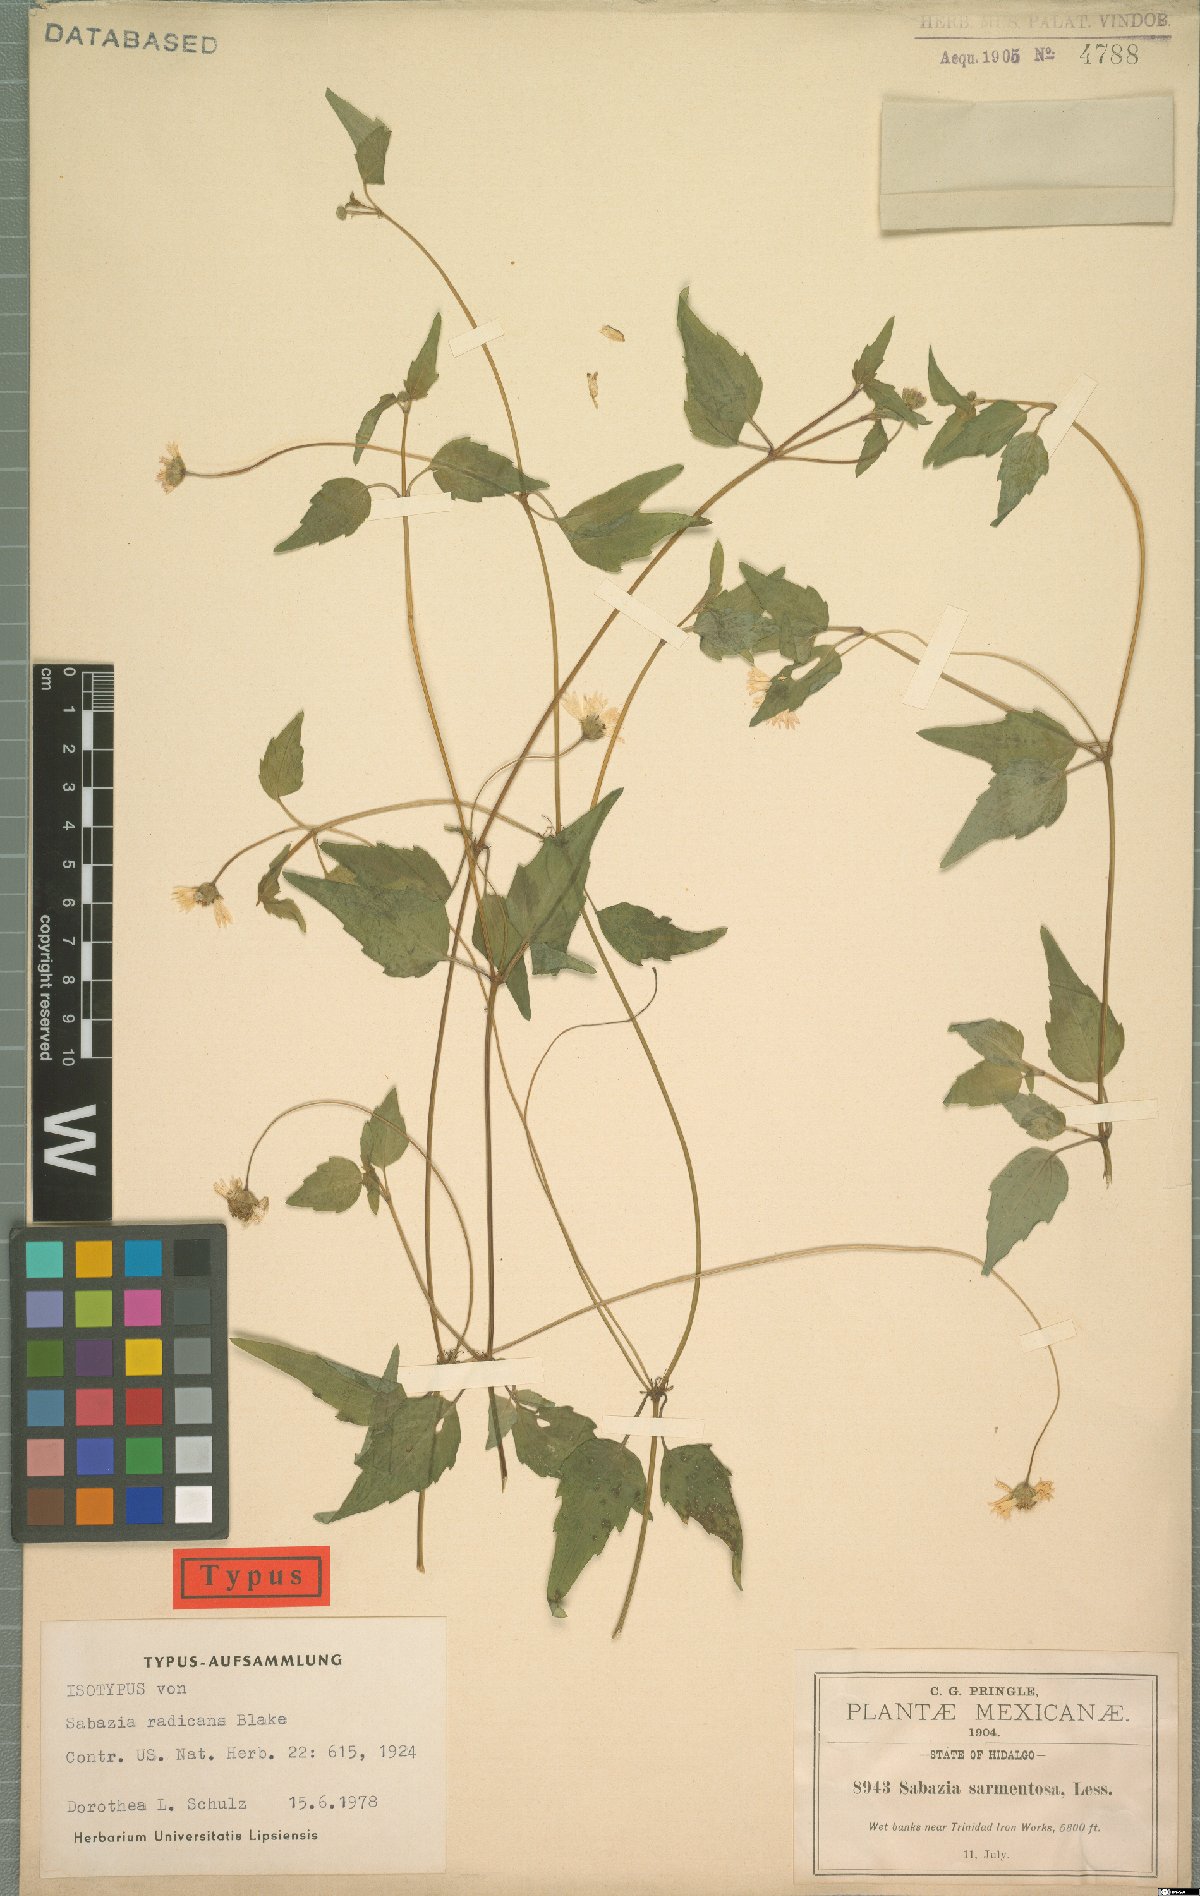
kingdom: Plantae
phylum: Tracheophyta
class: Magnoliopsida
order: Asterales
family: Asteraceae
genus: Sabazia
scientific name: Sabazia sarmentosa
